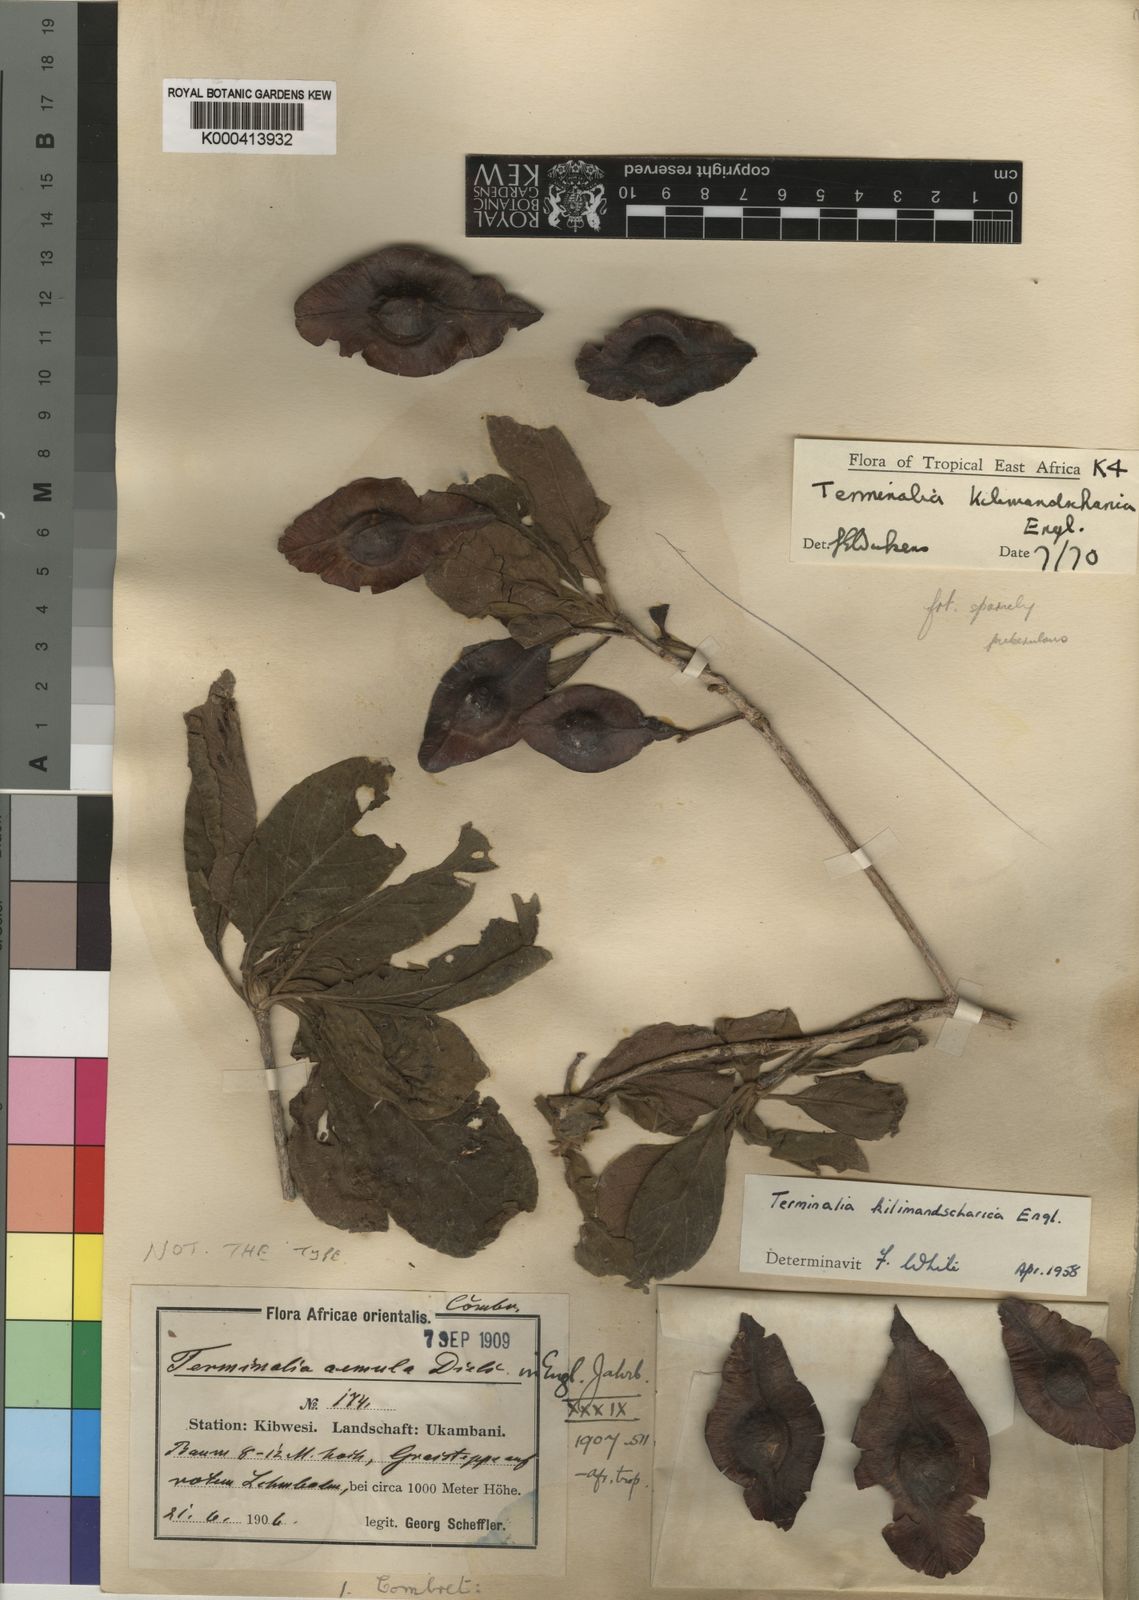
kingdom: Plantae
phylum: Tracheophyta
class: Magnoliopsida
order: Myrtales
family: Combretaceae
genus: Terminalia
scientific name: Terminalia kilimandscharica
